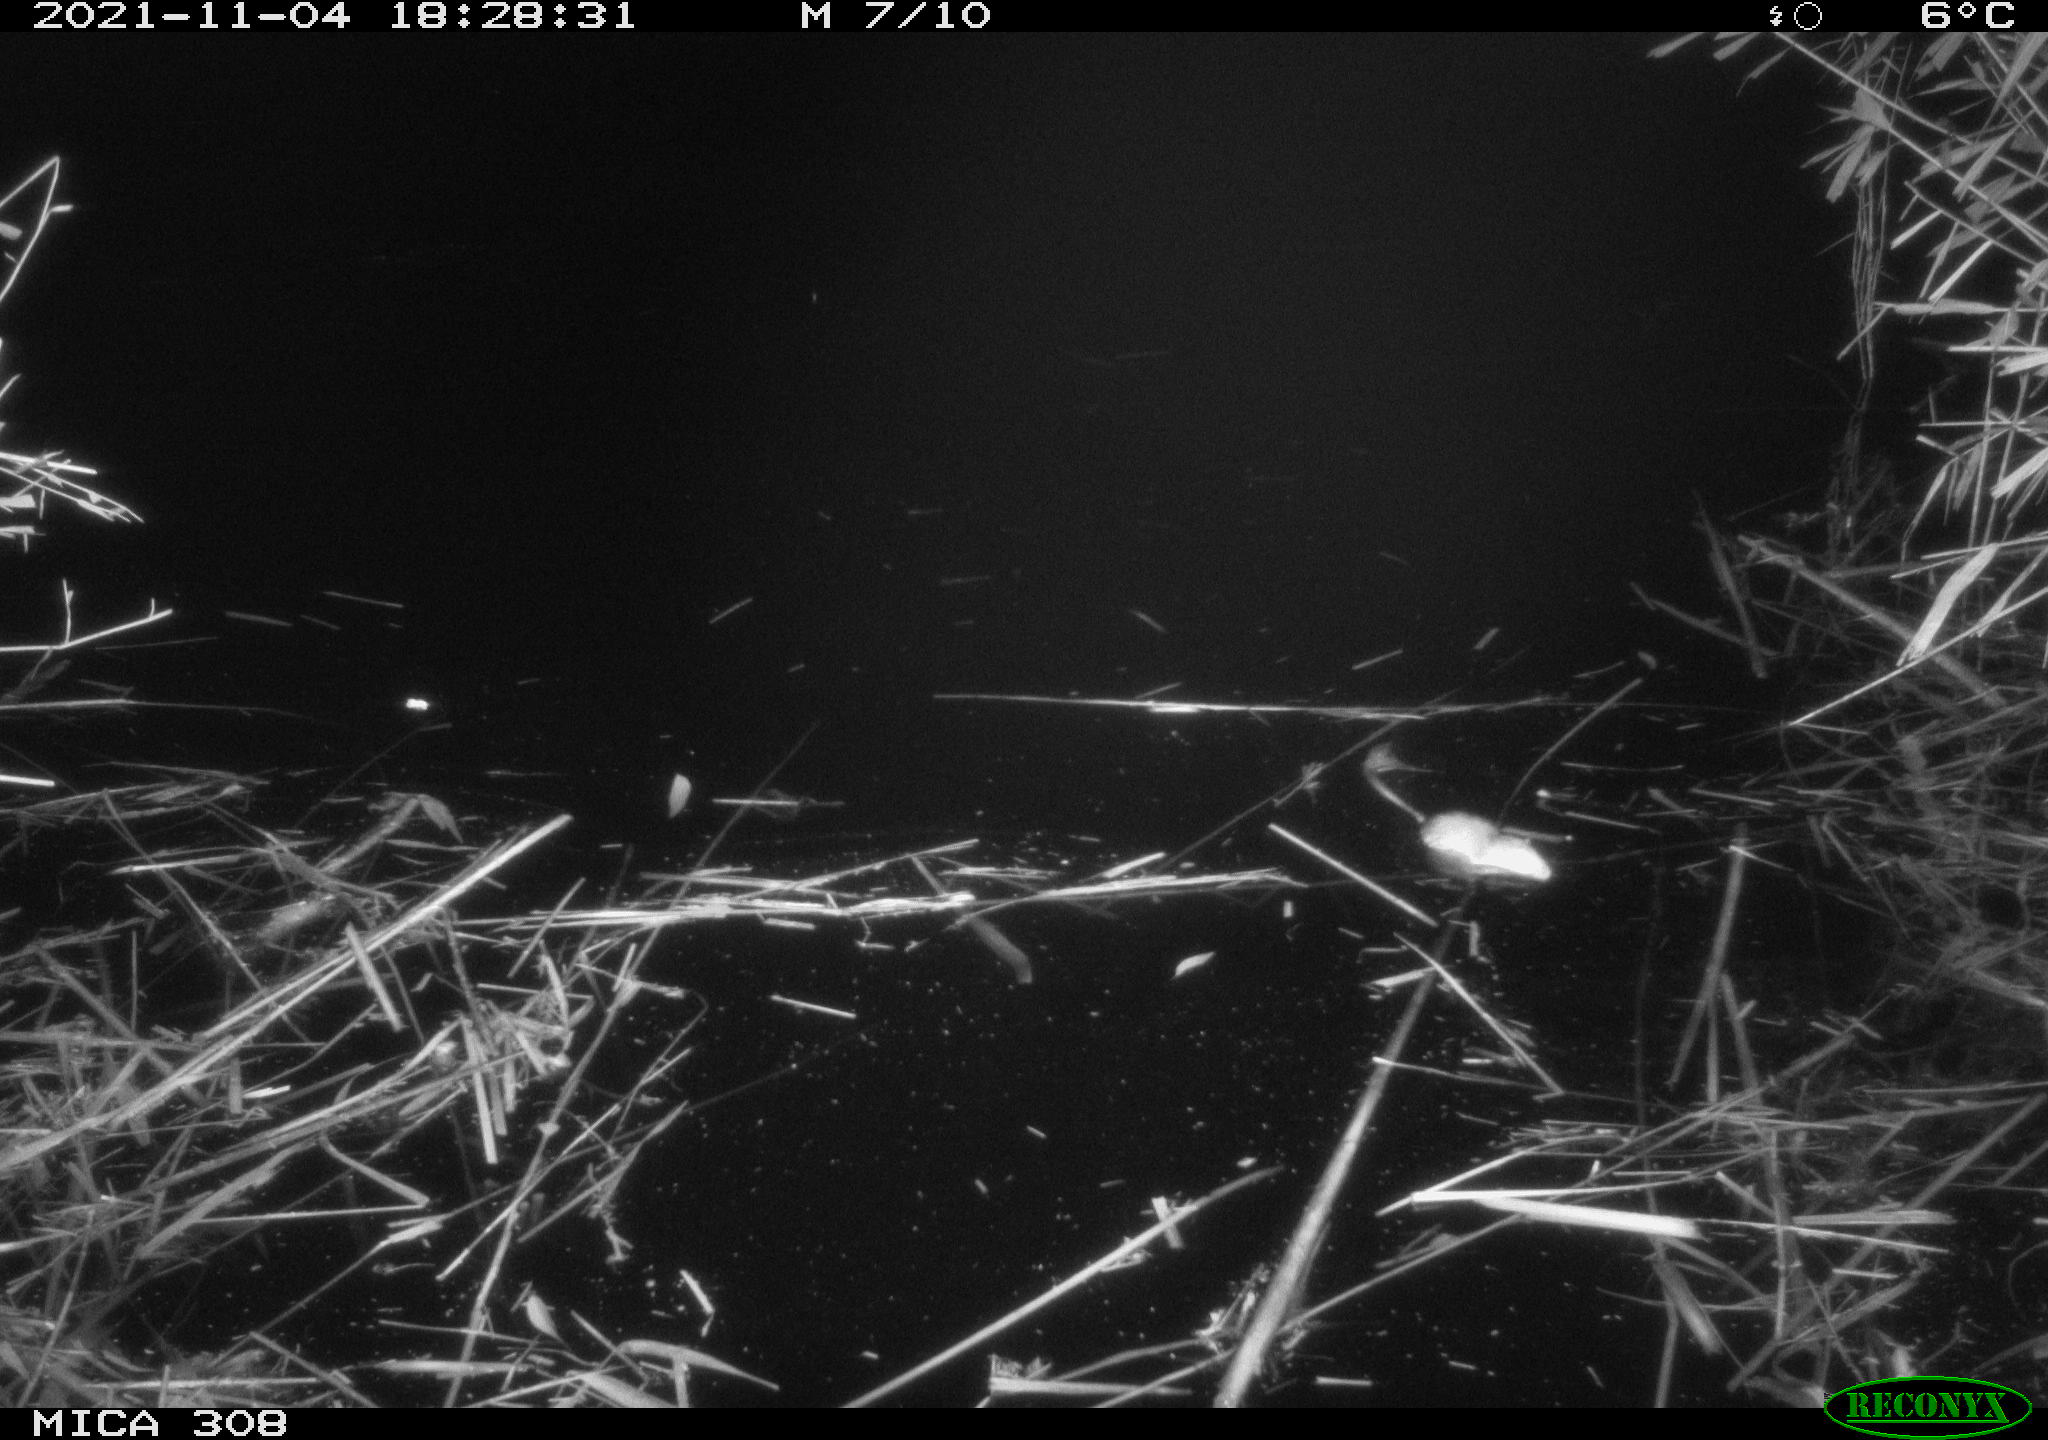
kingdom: Animalia
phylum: Chordata
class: Mammalia
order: Rodentia
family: Muridae
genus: Rattus
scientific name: Rattus norvegicus
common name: Brown rat
